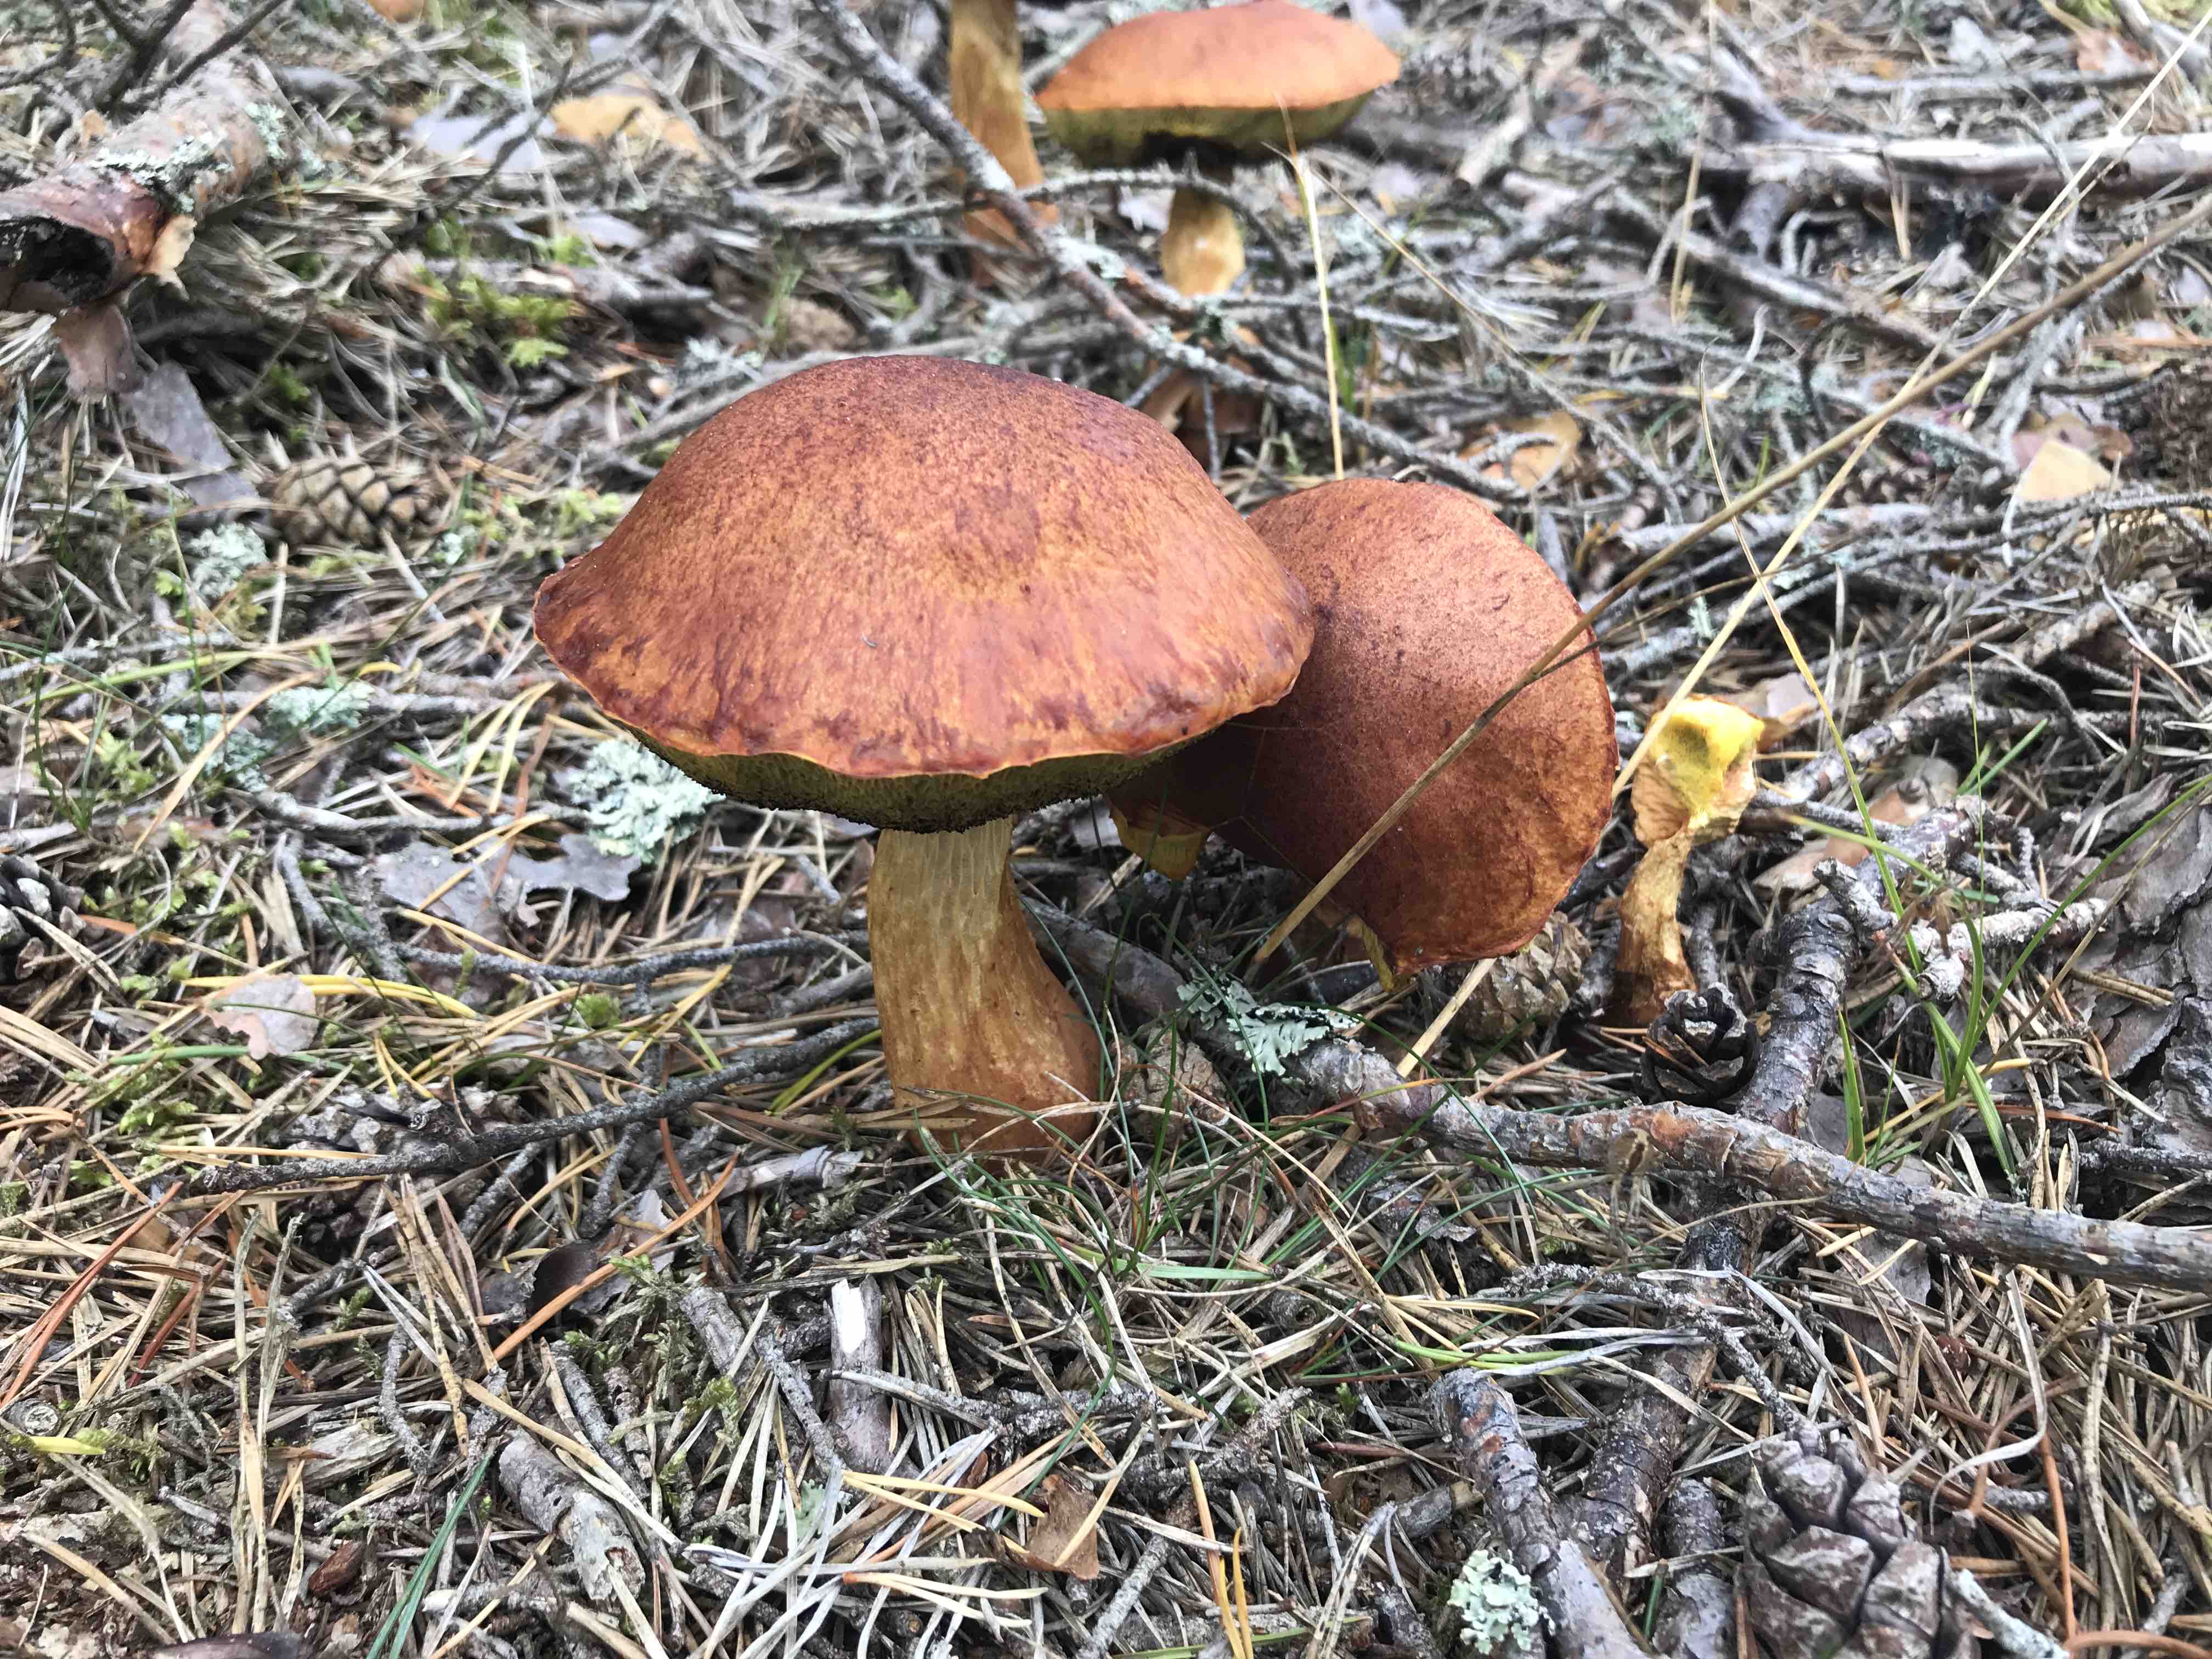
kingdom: Fungi
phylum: Basidiomycota
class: Agaricomycetes
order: Boletales
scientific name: Boletales
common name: rørhatordenen
